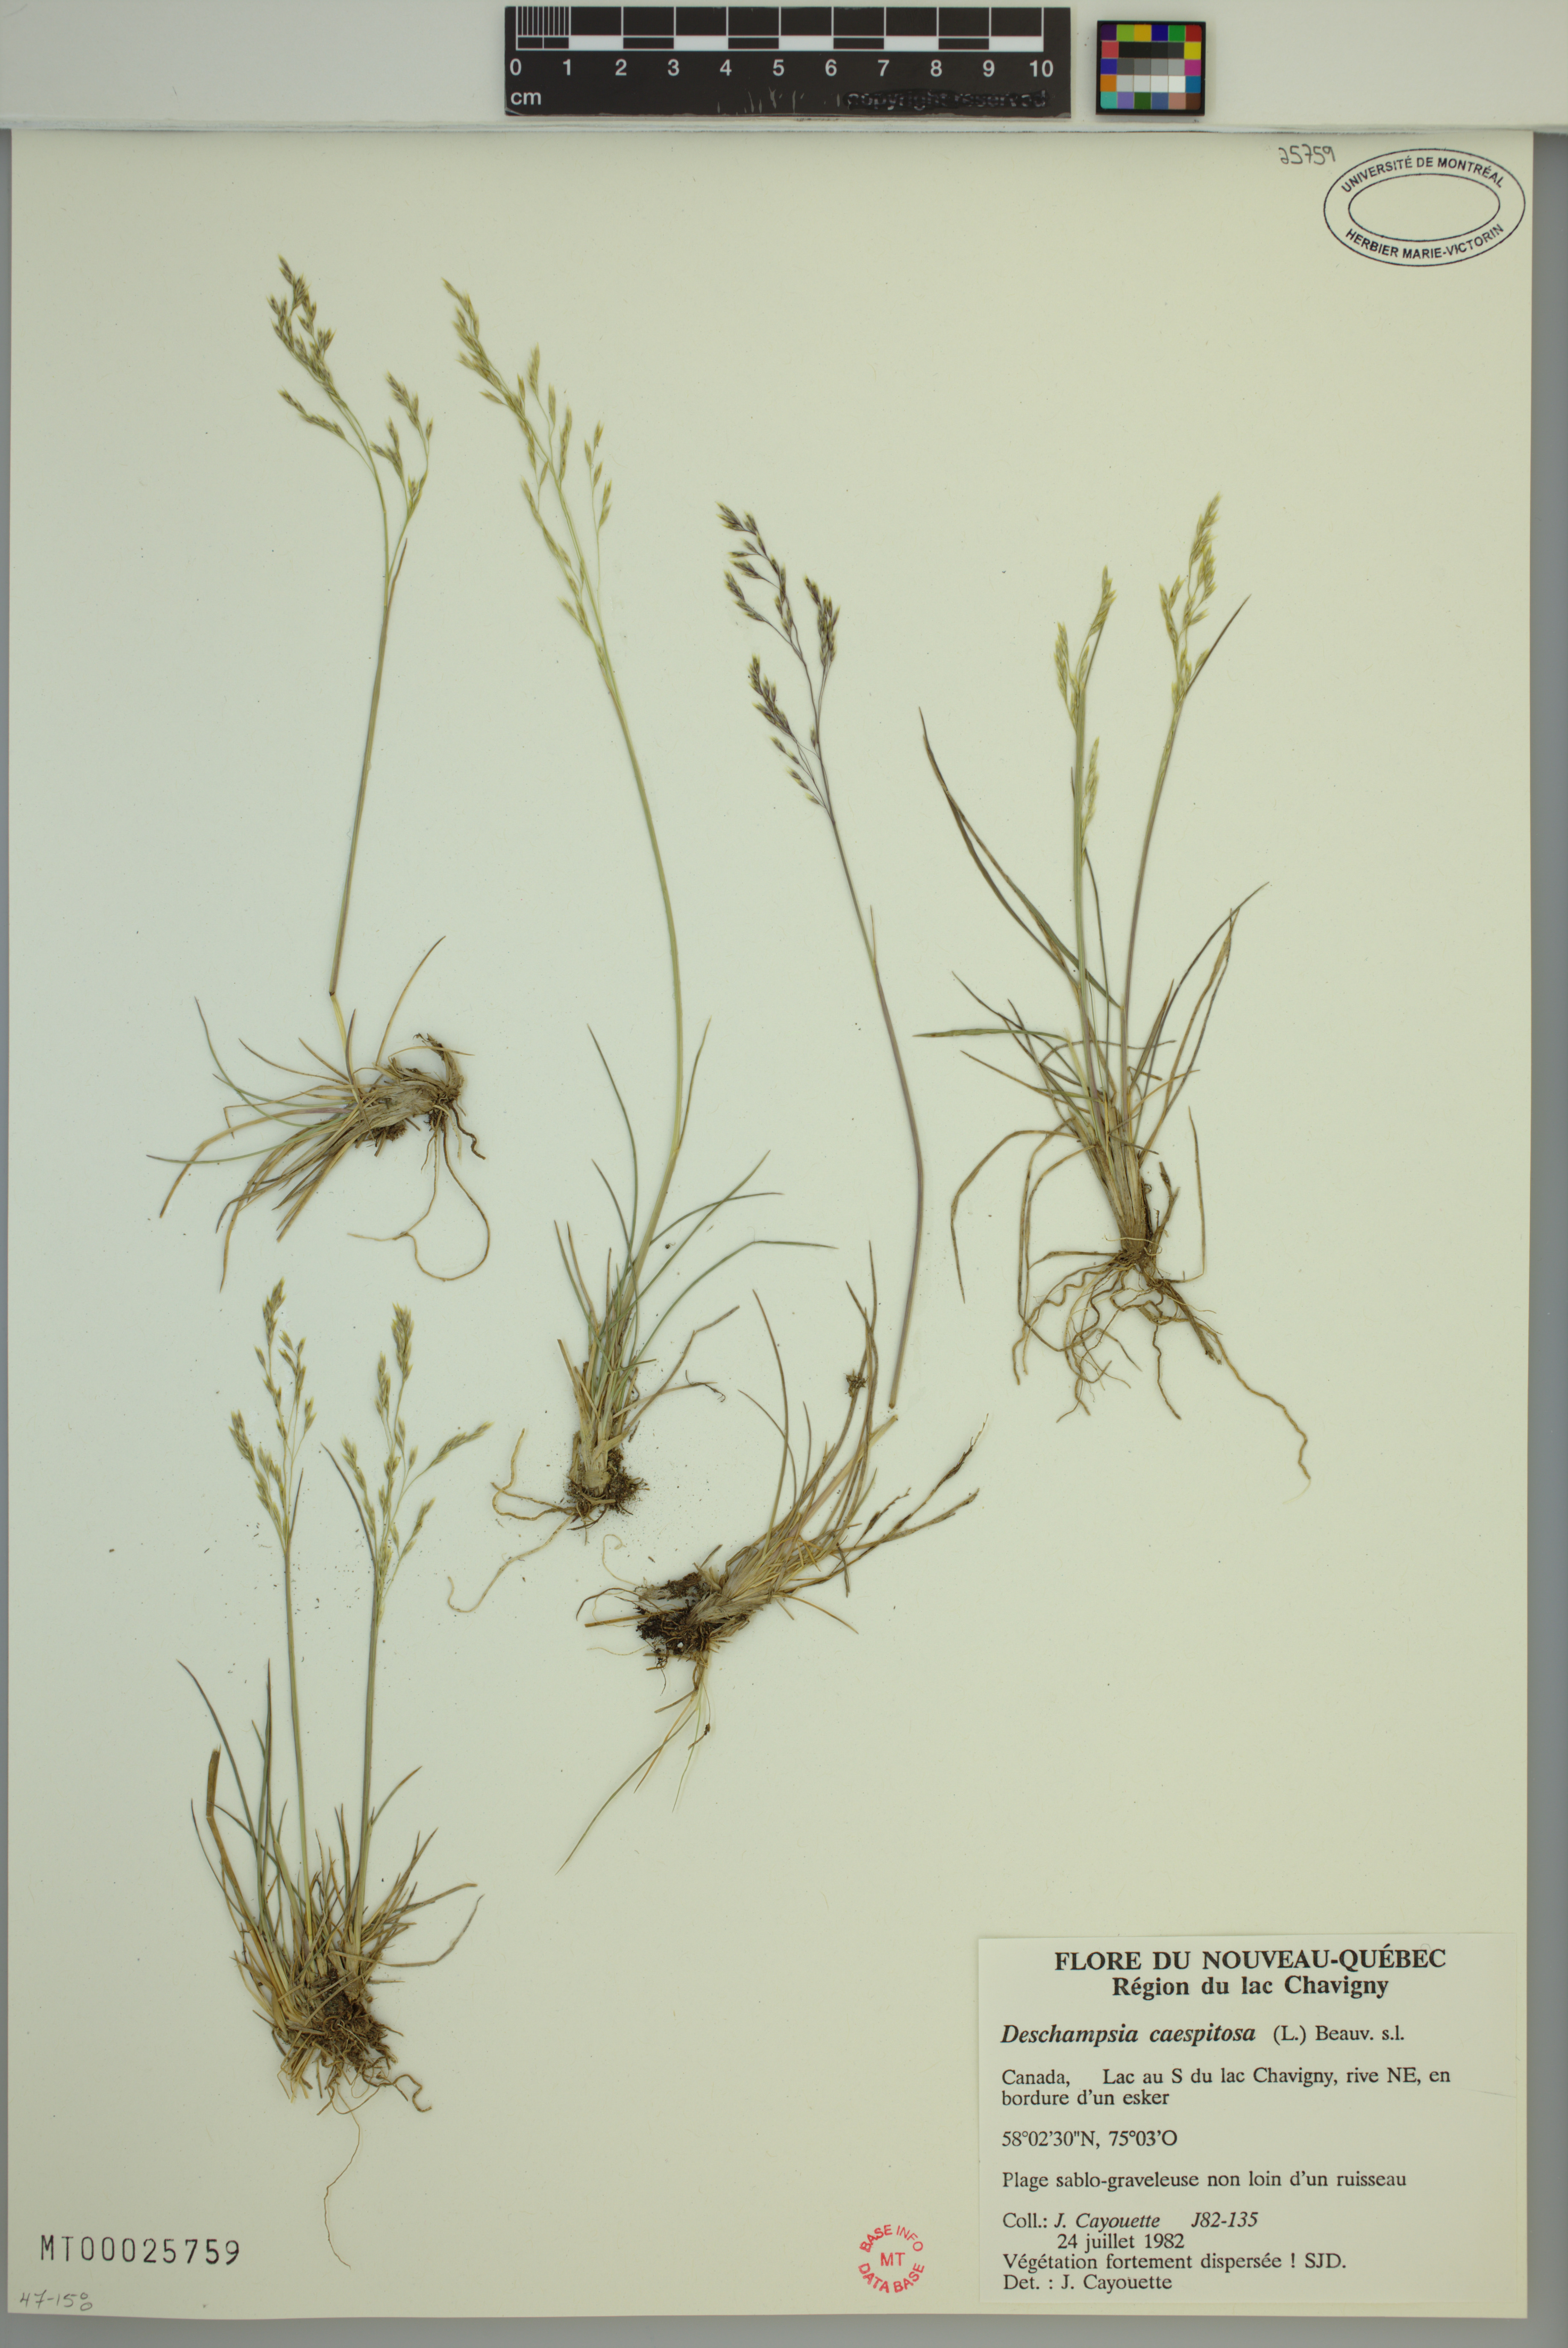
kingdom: Plantae
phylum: Tracheophyta
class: Liliopsida
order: Poales
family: Poaceae
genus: Deschampsia
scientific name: Deschampsia cespitosa
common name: Tufted hair-grass
